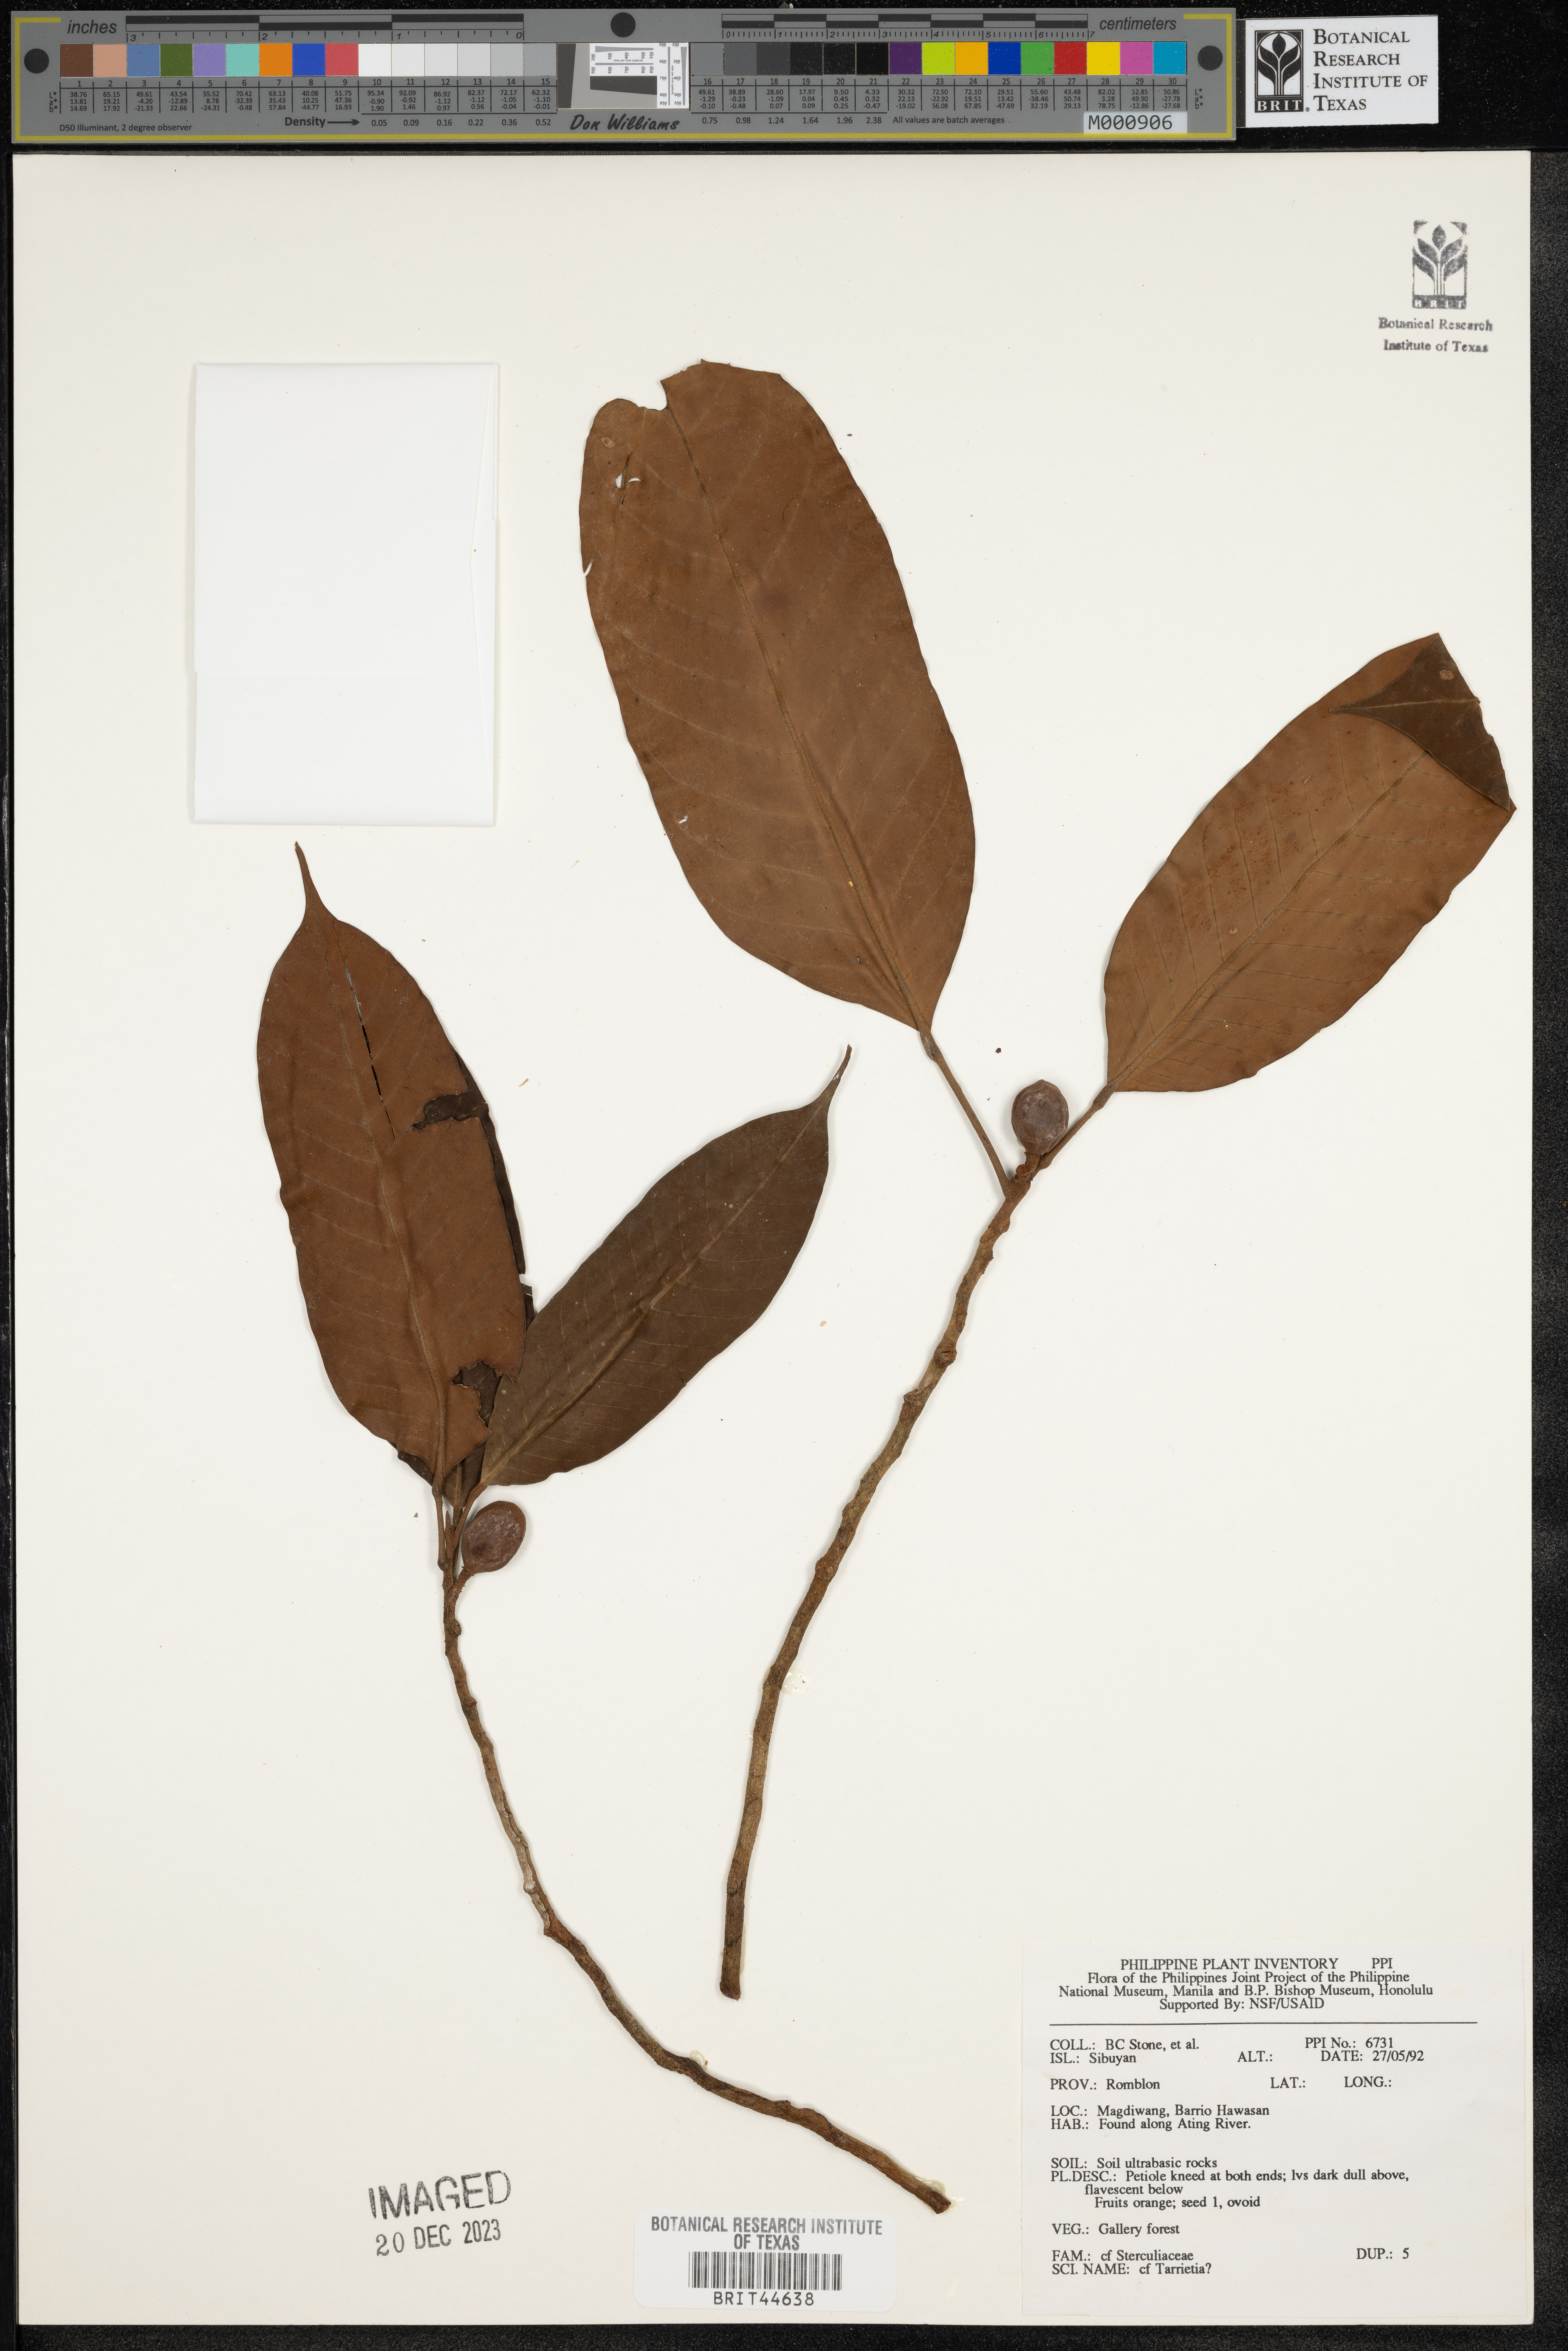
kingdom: Plantae
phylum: Tracheophyta
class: Magnoliopsida
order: Malvales
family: Malvaceae
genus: Heritiera
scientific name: Heritiera
